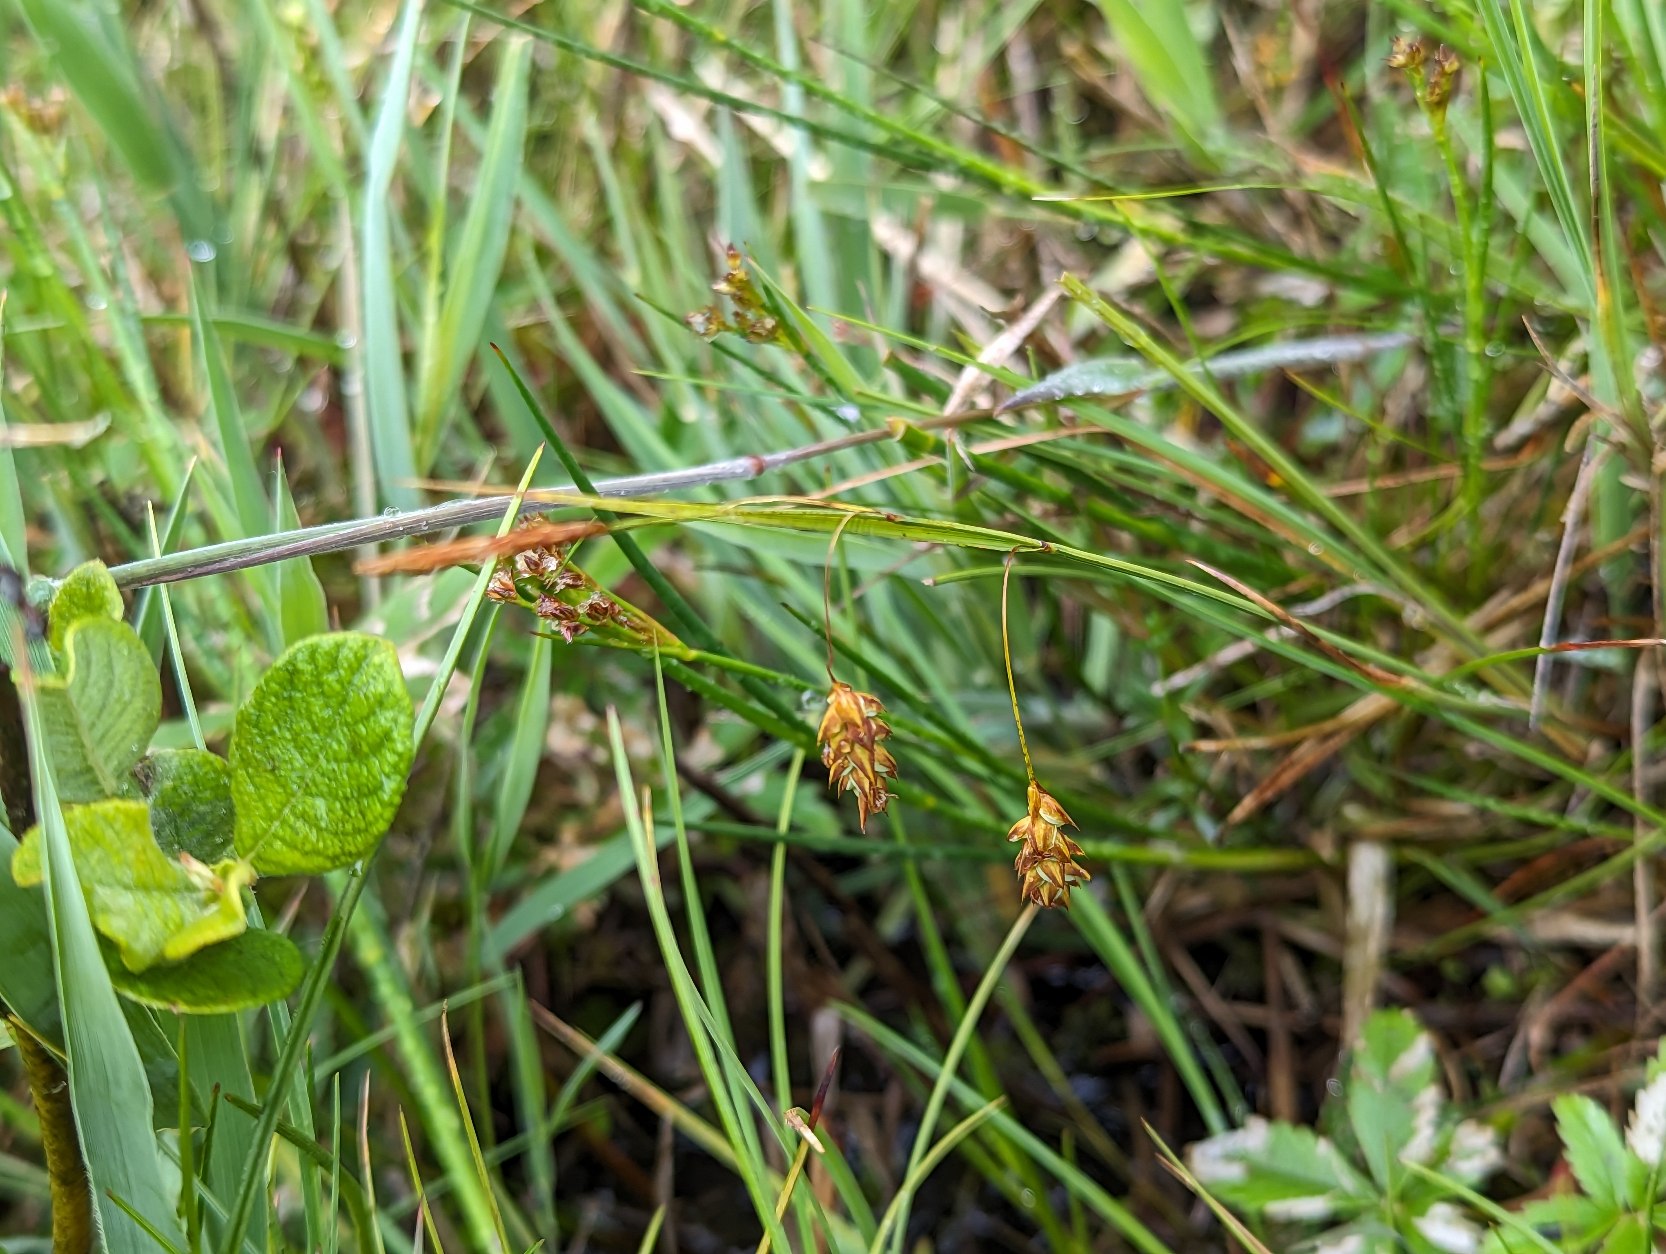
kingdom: Plantae
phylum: Tracheophyta
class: Liliopsida
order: Poales
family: Cyperaceae
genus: Carex
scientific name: Carex limosa
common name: Dynd-star
